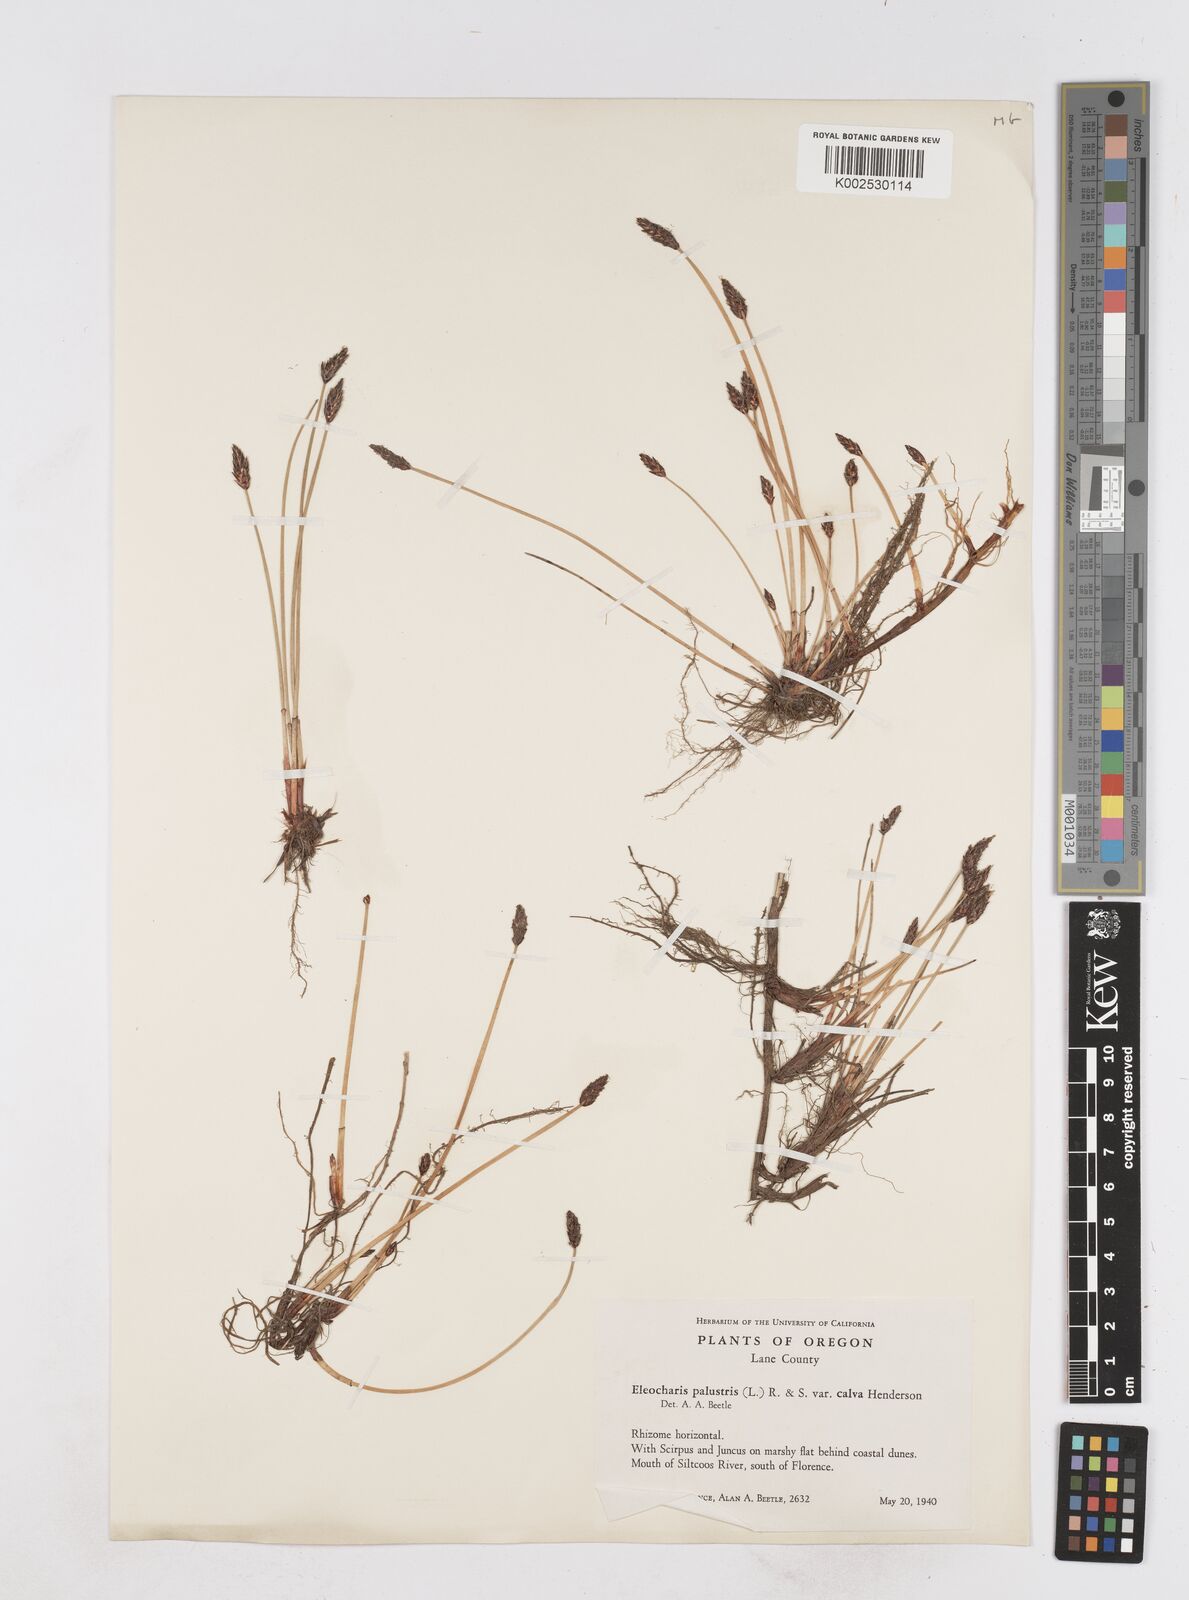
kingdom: Plantae
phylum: Tracheophyta
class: Liliopsida
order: Poales
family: Cyperaceae
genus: Eleocharis
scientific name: Eleocharis erythropoda
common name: Bald spikerush
